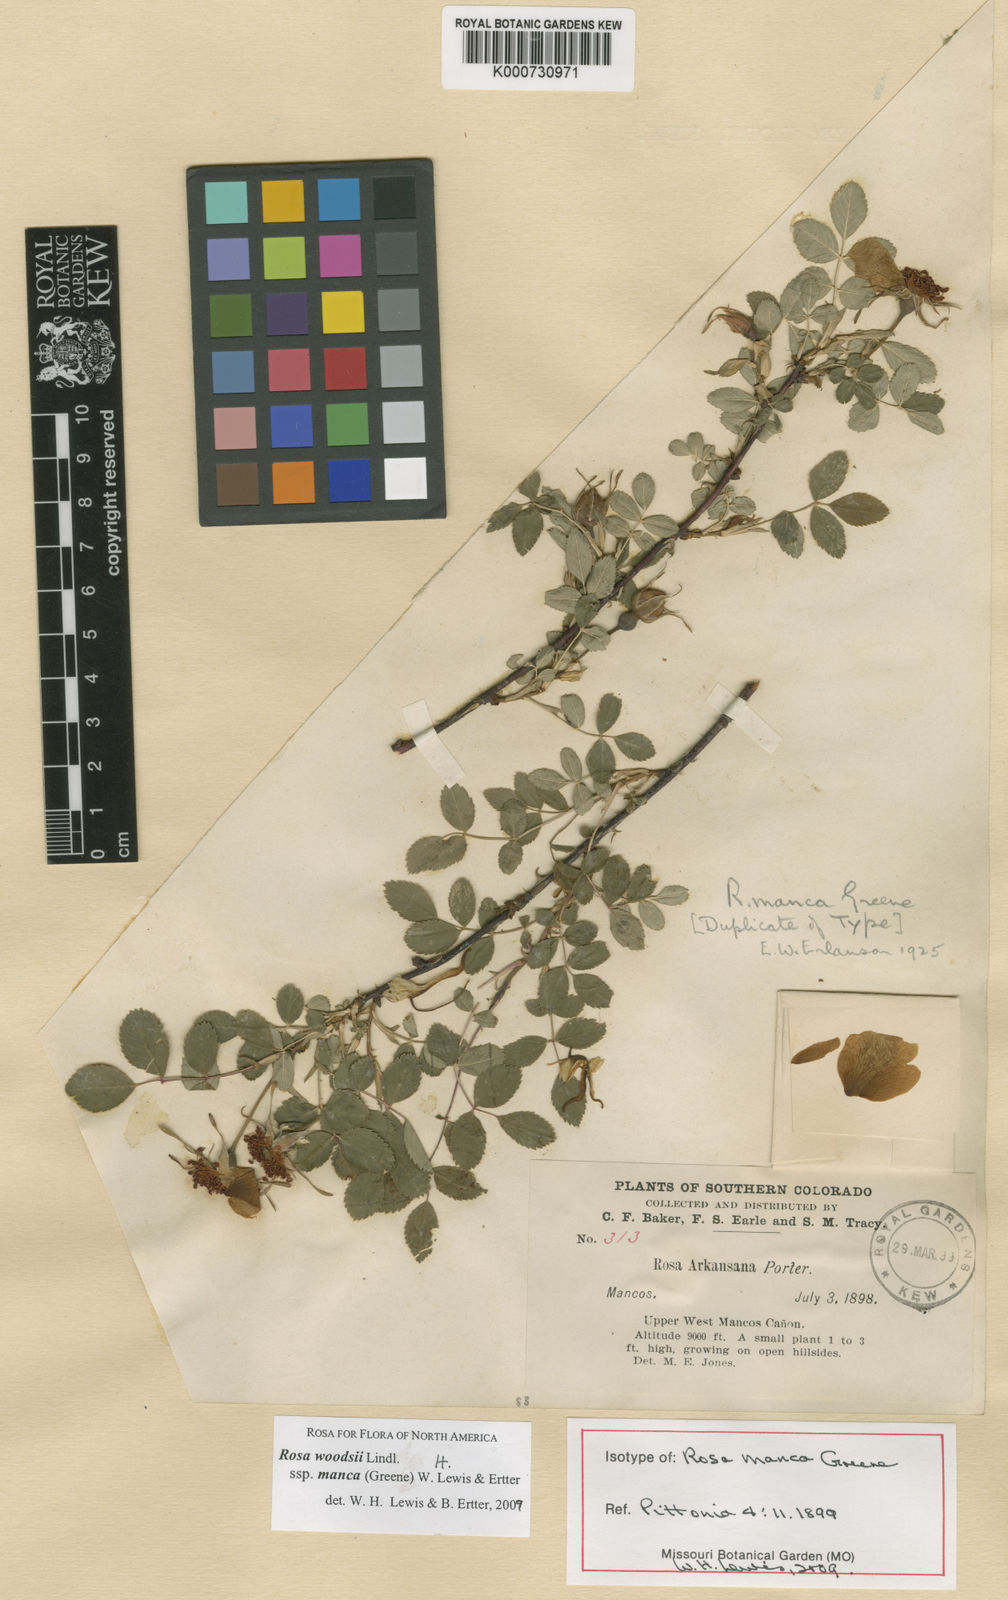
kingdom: Plantae
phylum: Tracheophyta
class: Magnoliopsida
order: Rosales
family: Rosaceae
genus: Rosa
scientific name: Rosa woodsii
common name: Woods's rose
